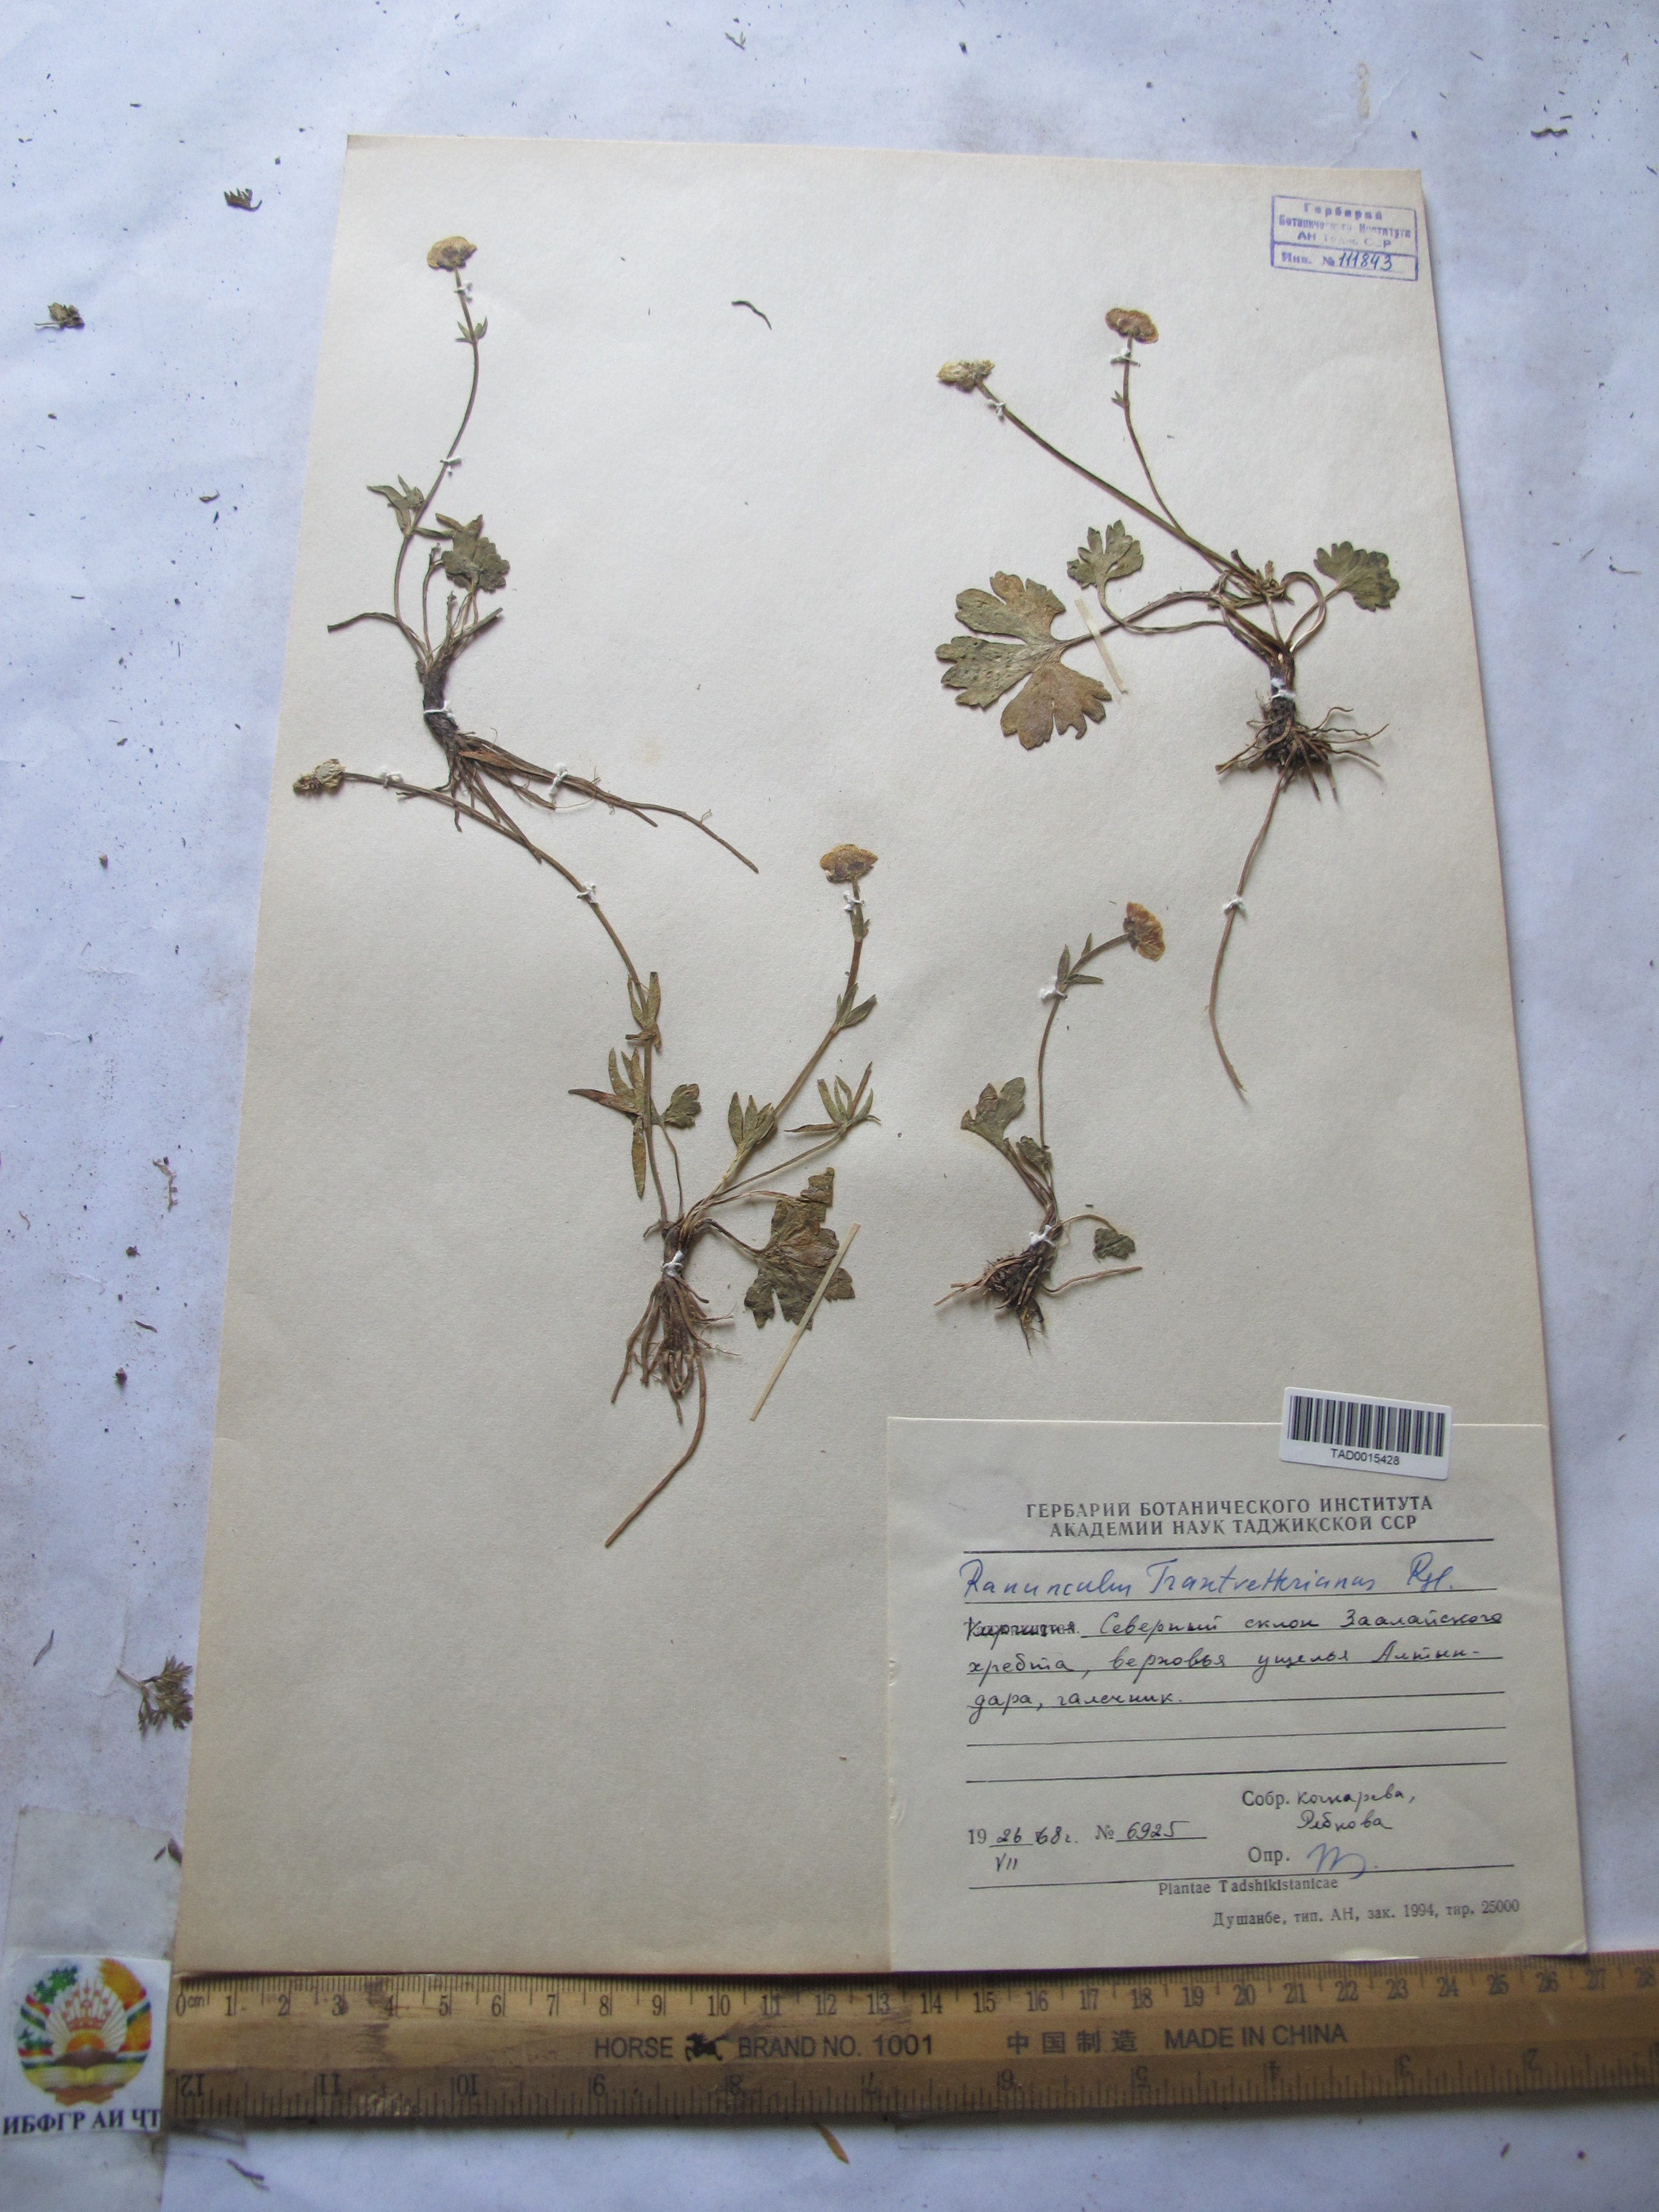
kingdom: Plantae
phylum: Tracheophyta
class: Magnoliopsida
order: Ranunculales
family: Ranunculaceae
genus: Ranunculus
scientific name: Ranunculus songaricus
